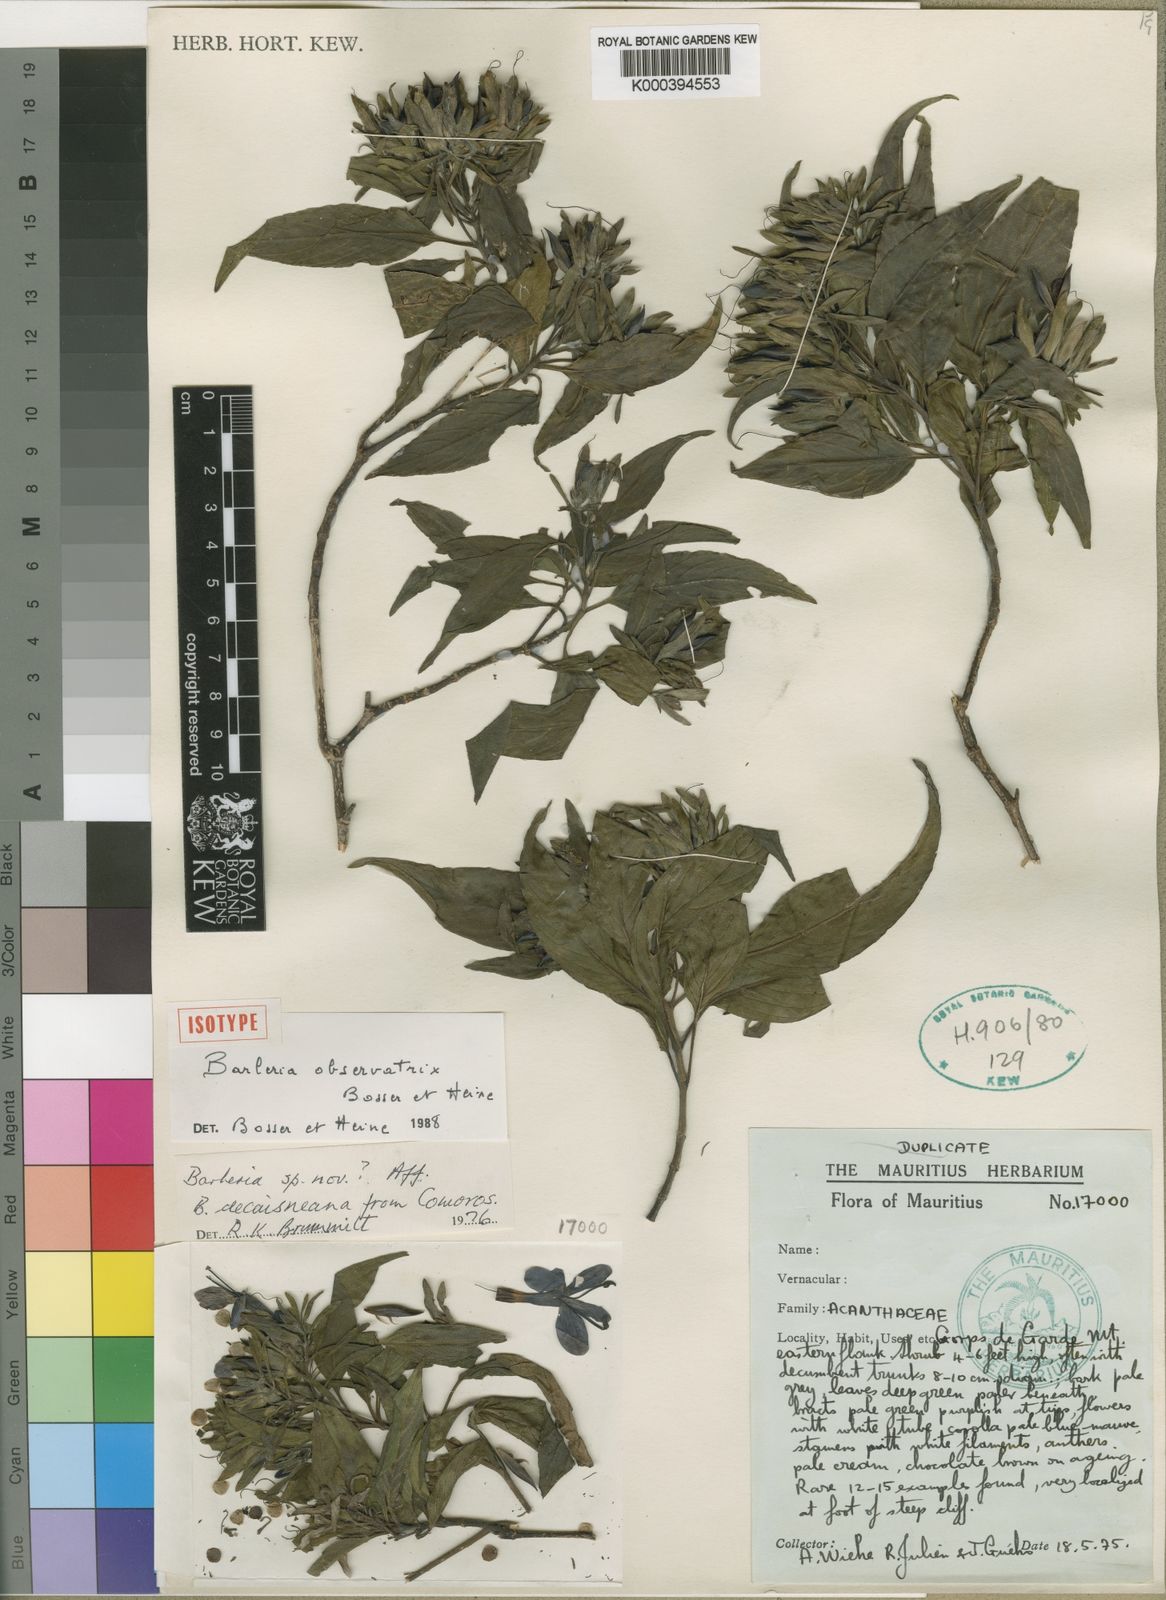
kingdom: Plantae
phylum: Tracheophyta
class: Magnoliopsida
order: Lamiales
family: Acanthaceae
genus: Barleria
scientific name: Barleria observatrix
